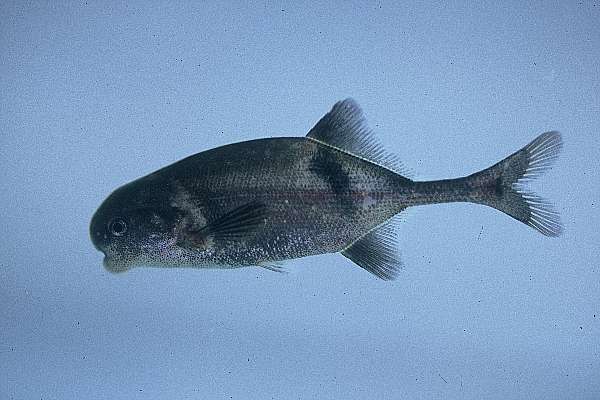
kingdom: Animalia
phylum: Chordata
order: Osteoglossiformes
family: Mormyridae
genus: Cyphomyrus
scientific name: Cyphomyrus discorhynchus
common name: Zambezi parrotfish
